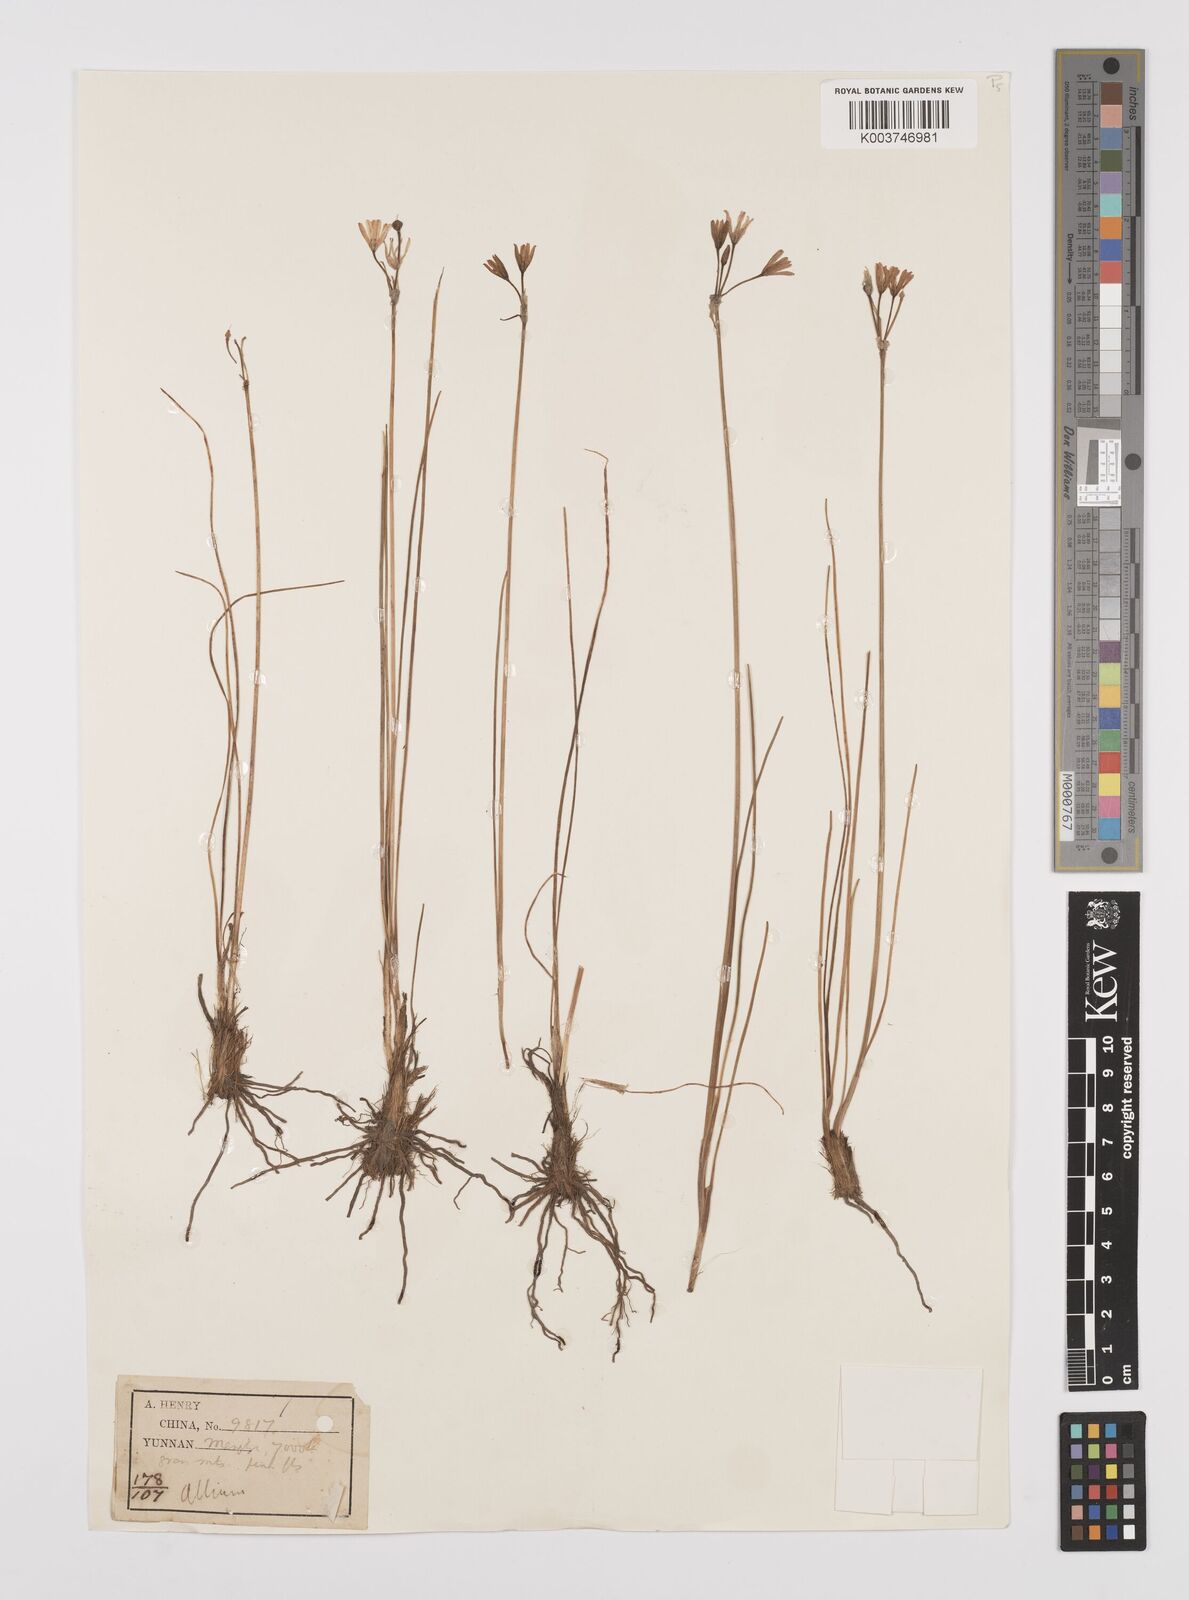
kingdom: Plantae
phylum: Tracheophyta
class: Liliopsida
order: Asparagales
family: Amaryllidaceae
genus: Allium
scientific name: Allium
